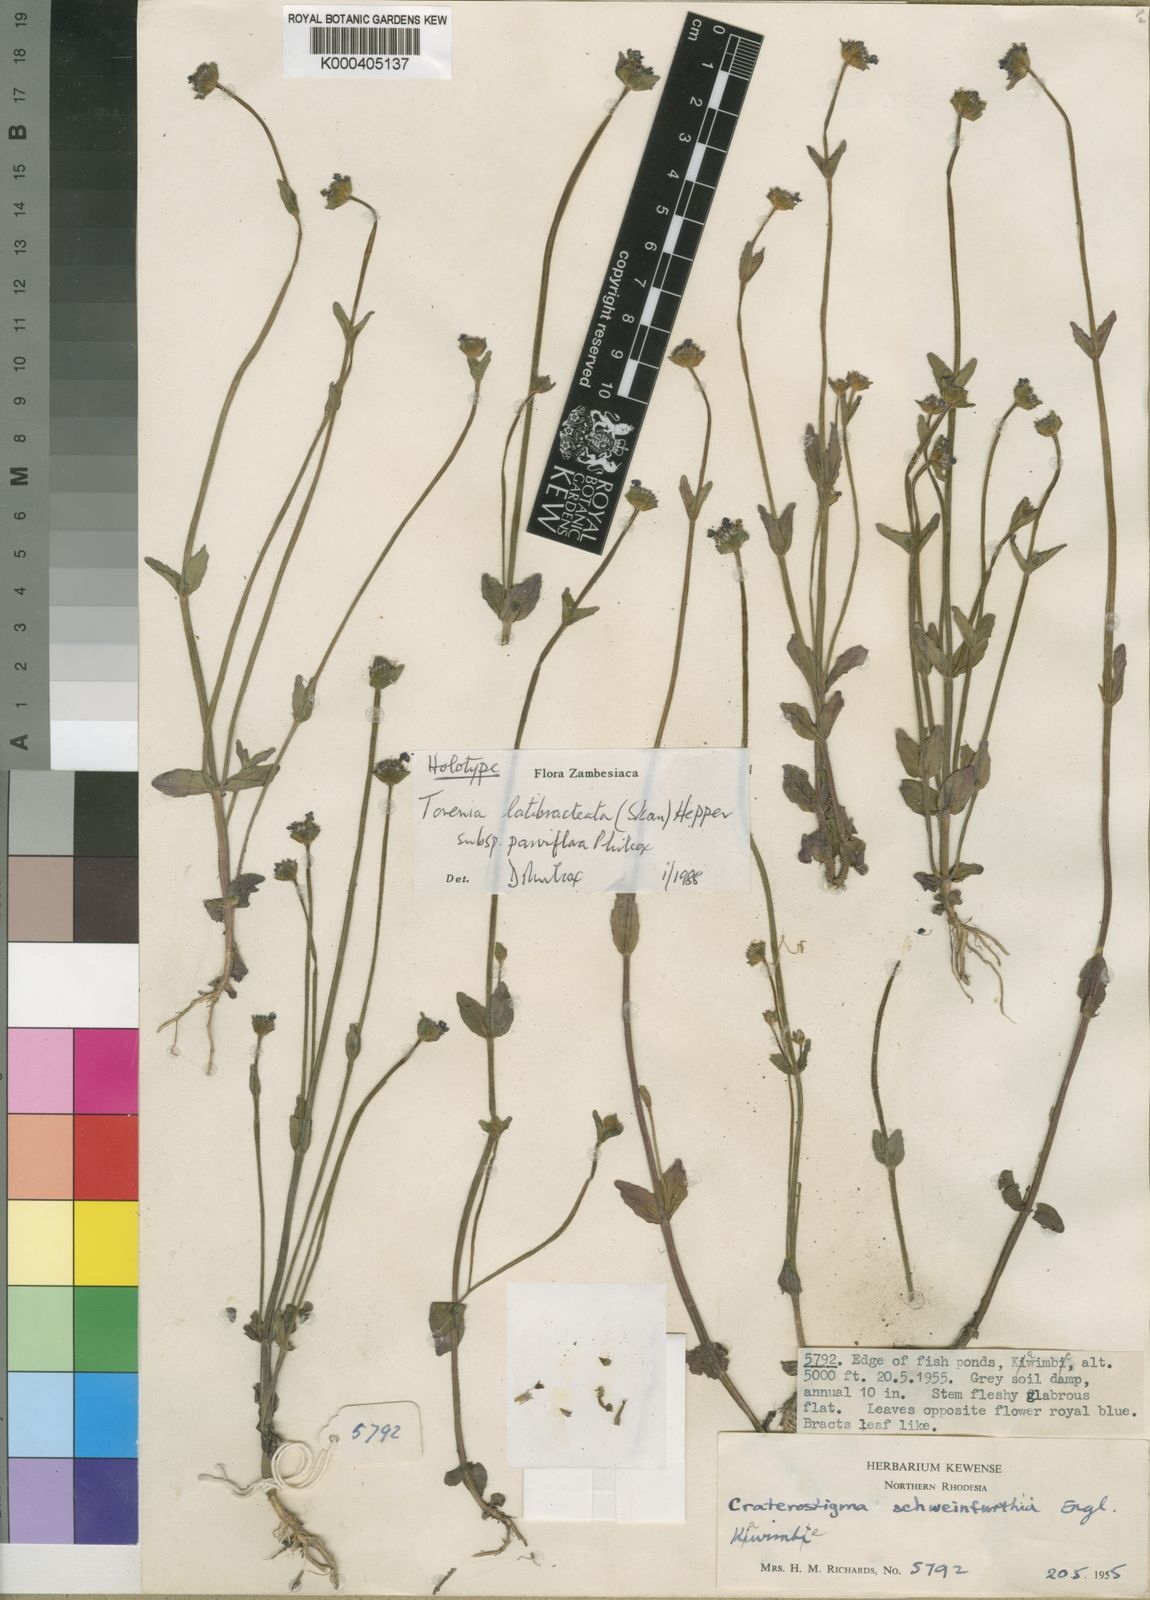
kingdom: Plantae
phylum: Tracheophyta
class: Magnoliopsida
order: Lamiales
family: Linderniaceae
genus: Crepidorhopalon
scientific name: Crepidorhopalon parviflorus
